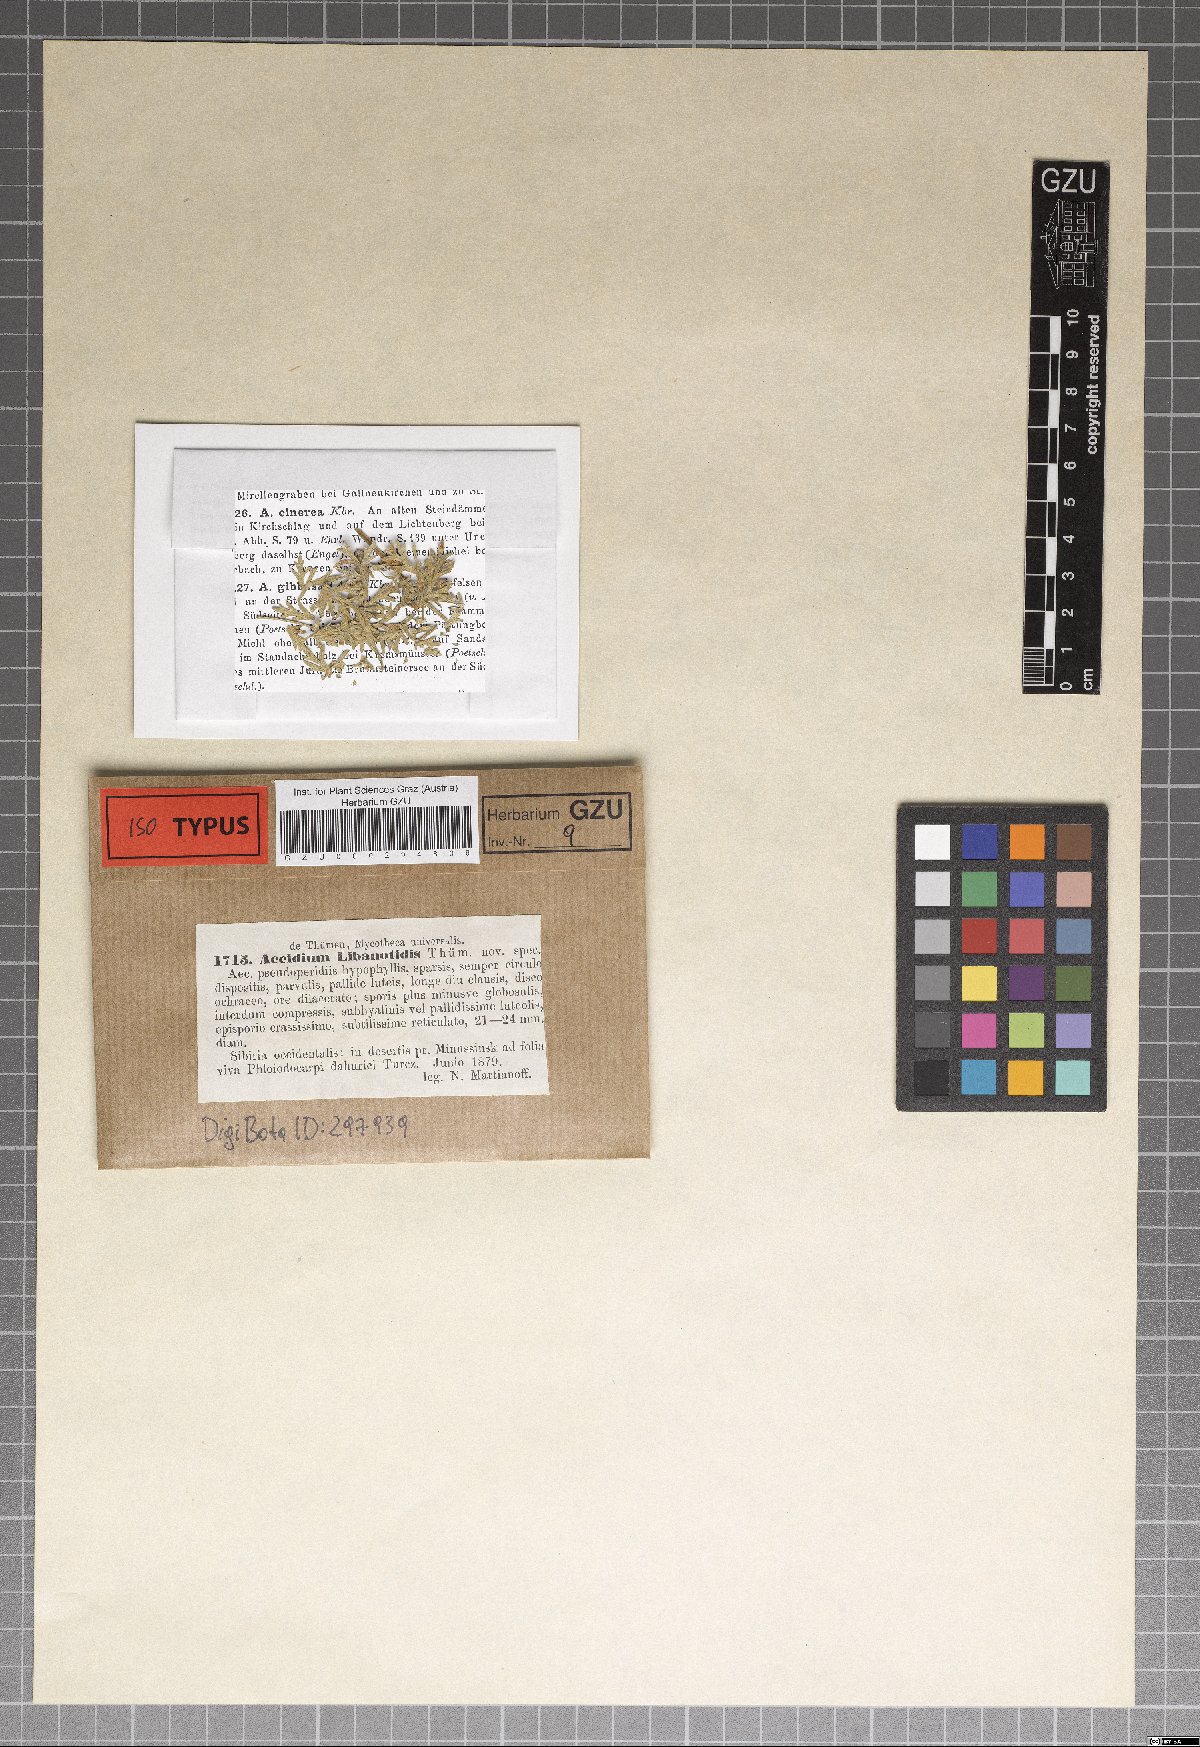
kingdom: Fungi
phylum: Basidiomycota
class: Pucciniomycetes
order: Pucciniales
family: Pucciniaceae
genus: Aecidium
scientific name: Aecidium
